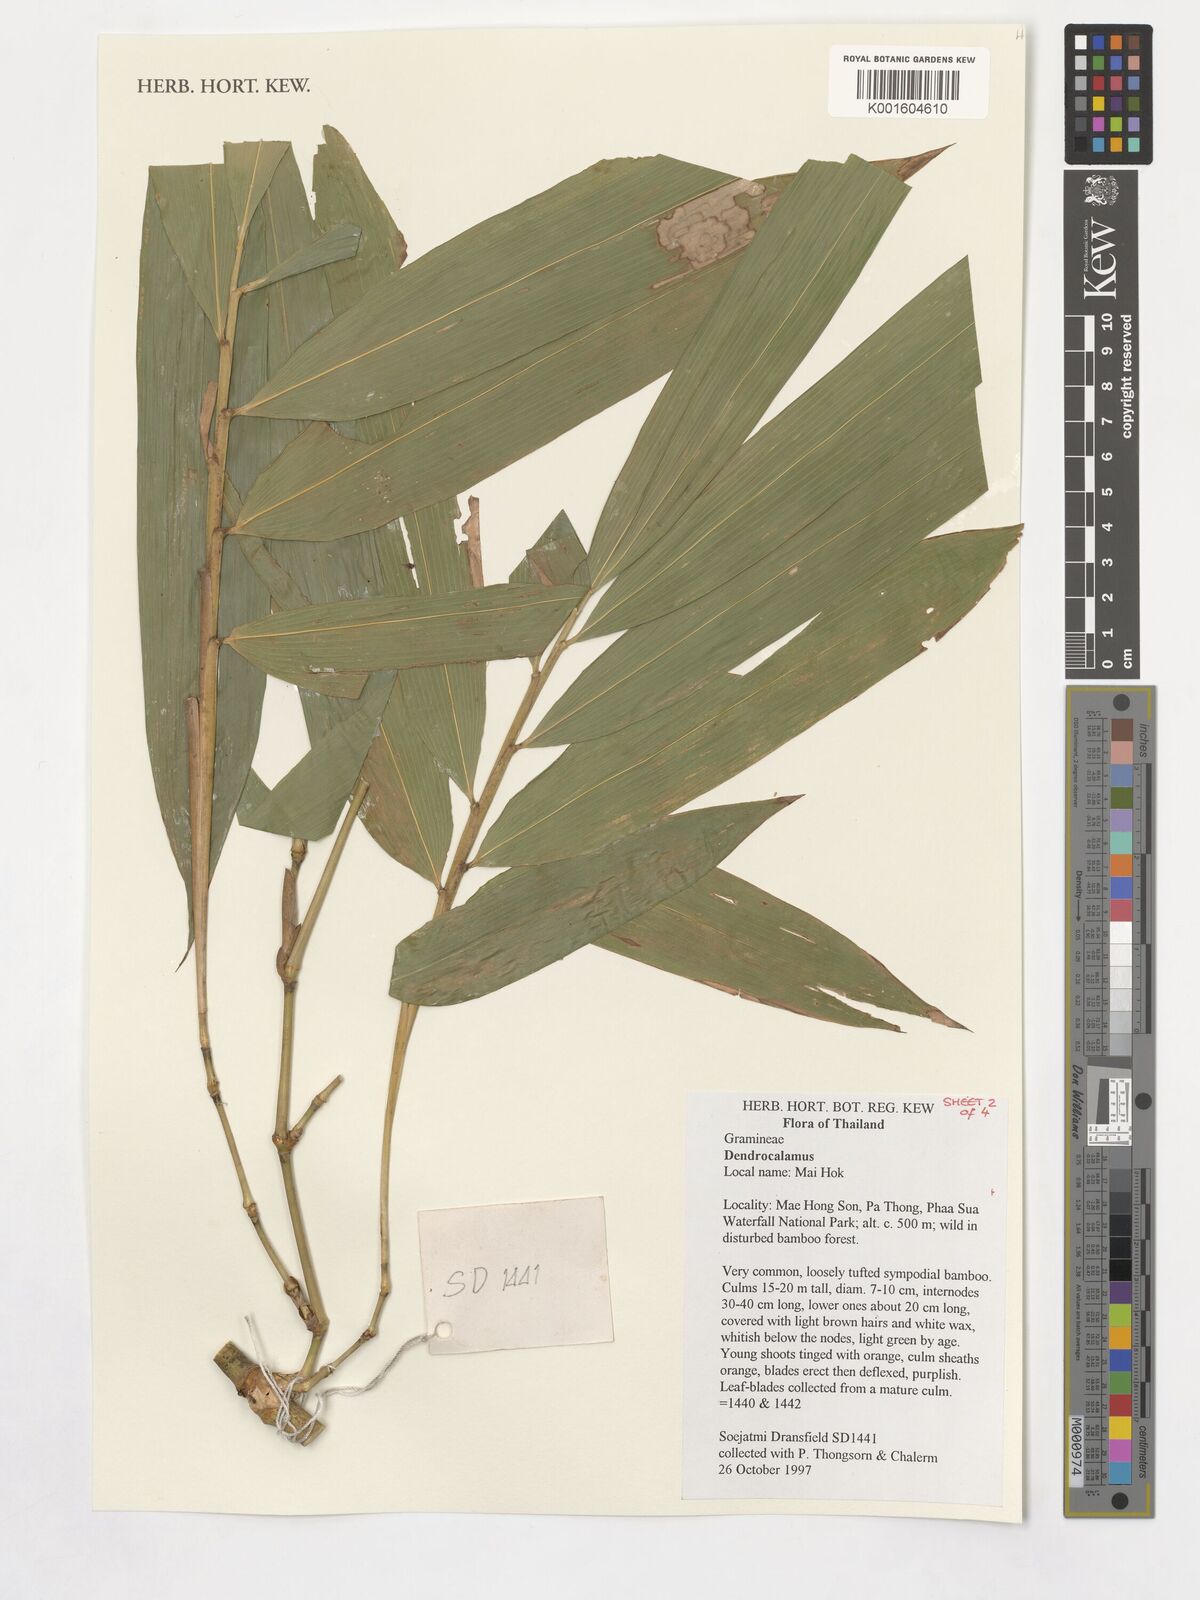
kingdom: Plantae
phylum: Tracheophyta
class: Liliopsida
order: Poales
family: Poaceae
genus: Dendrocalamus
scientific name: Dendrocalamus
